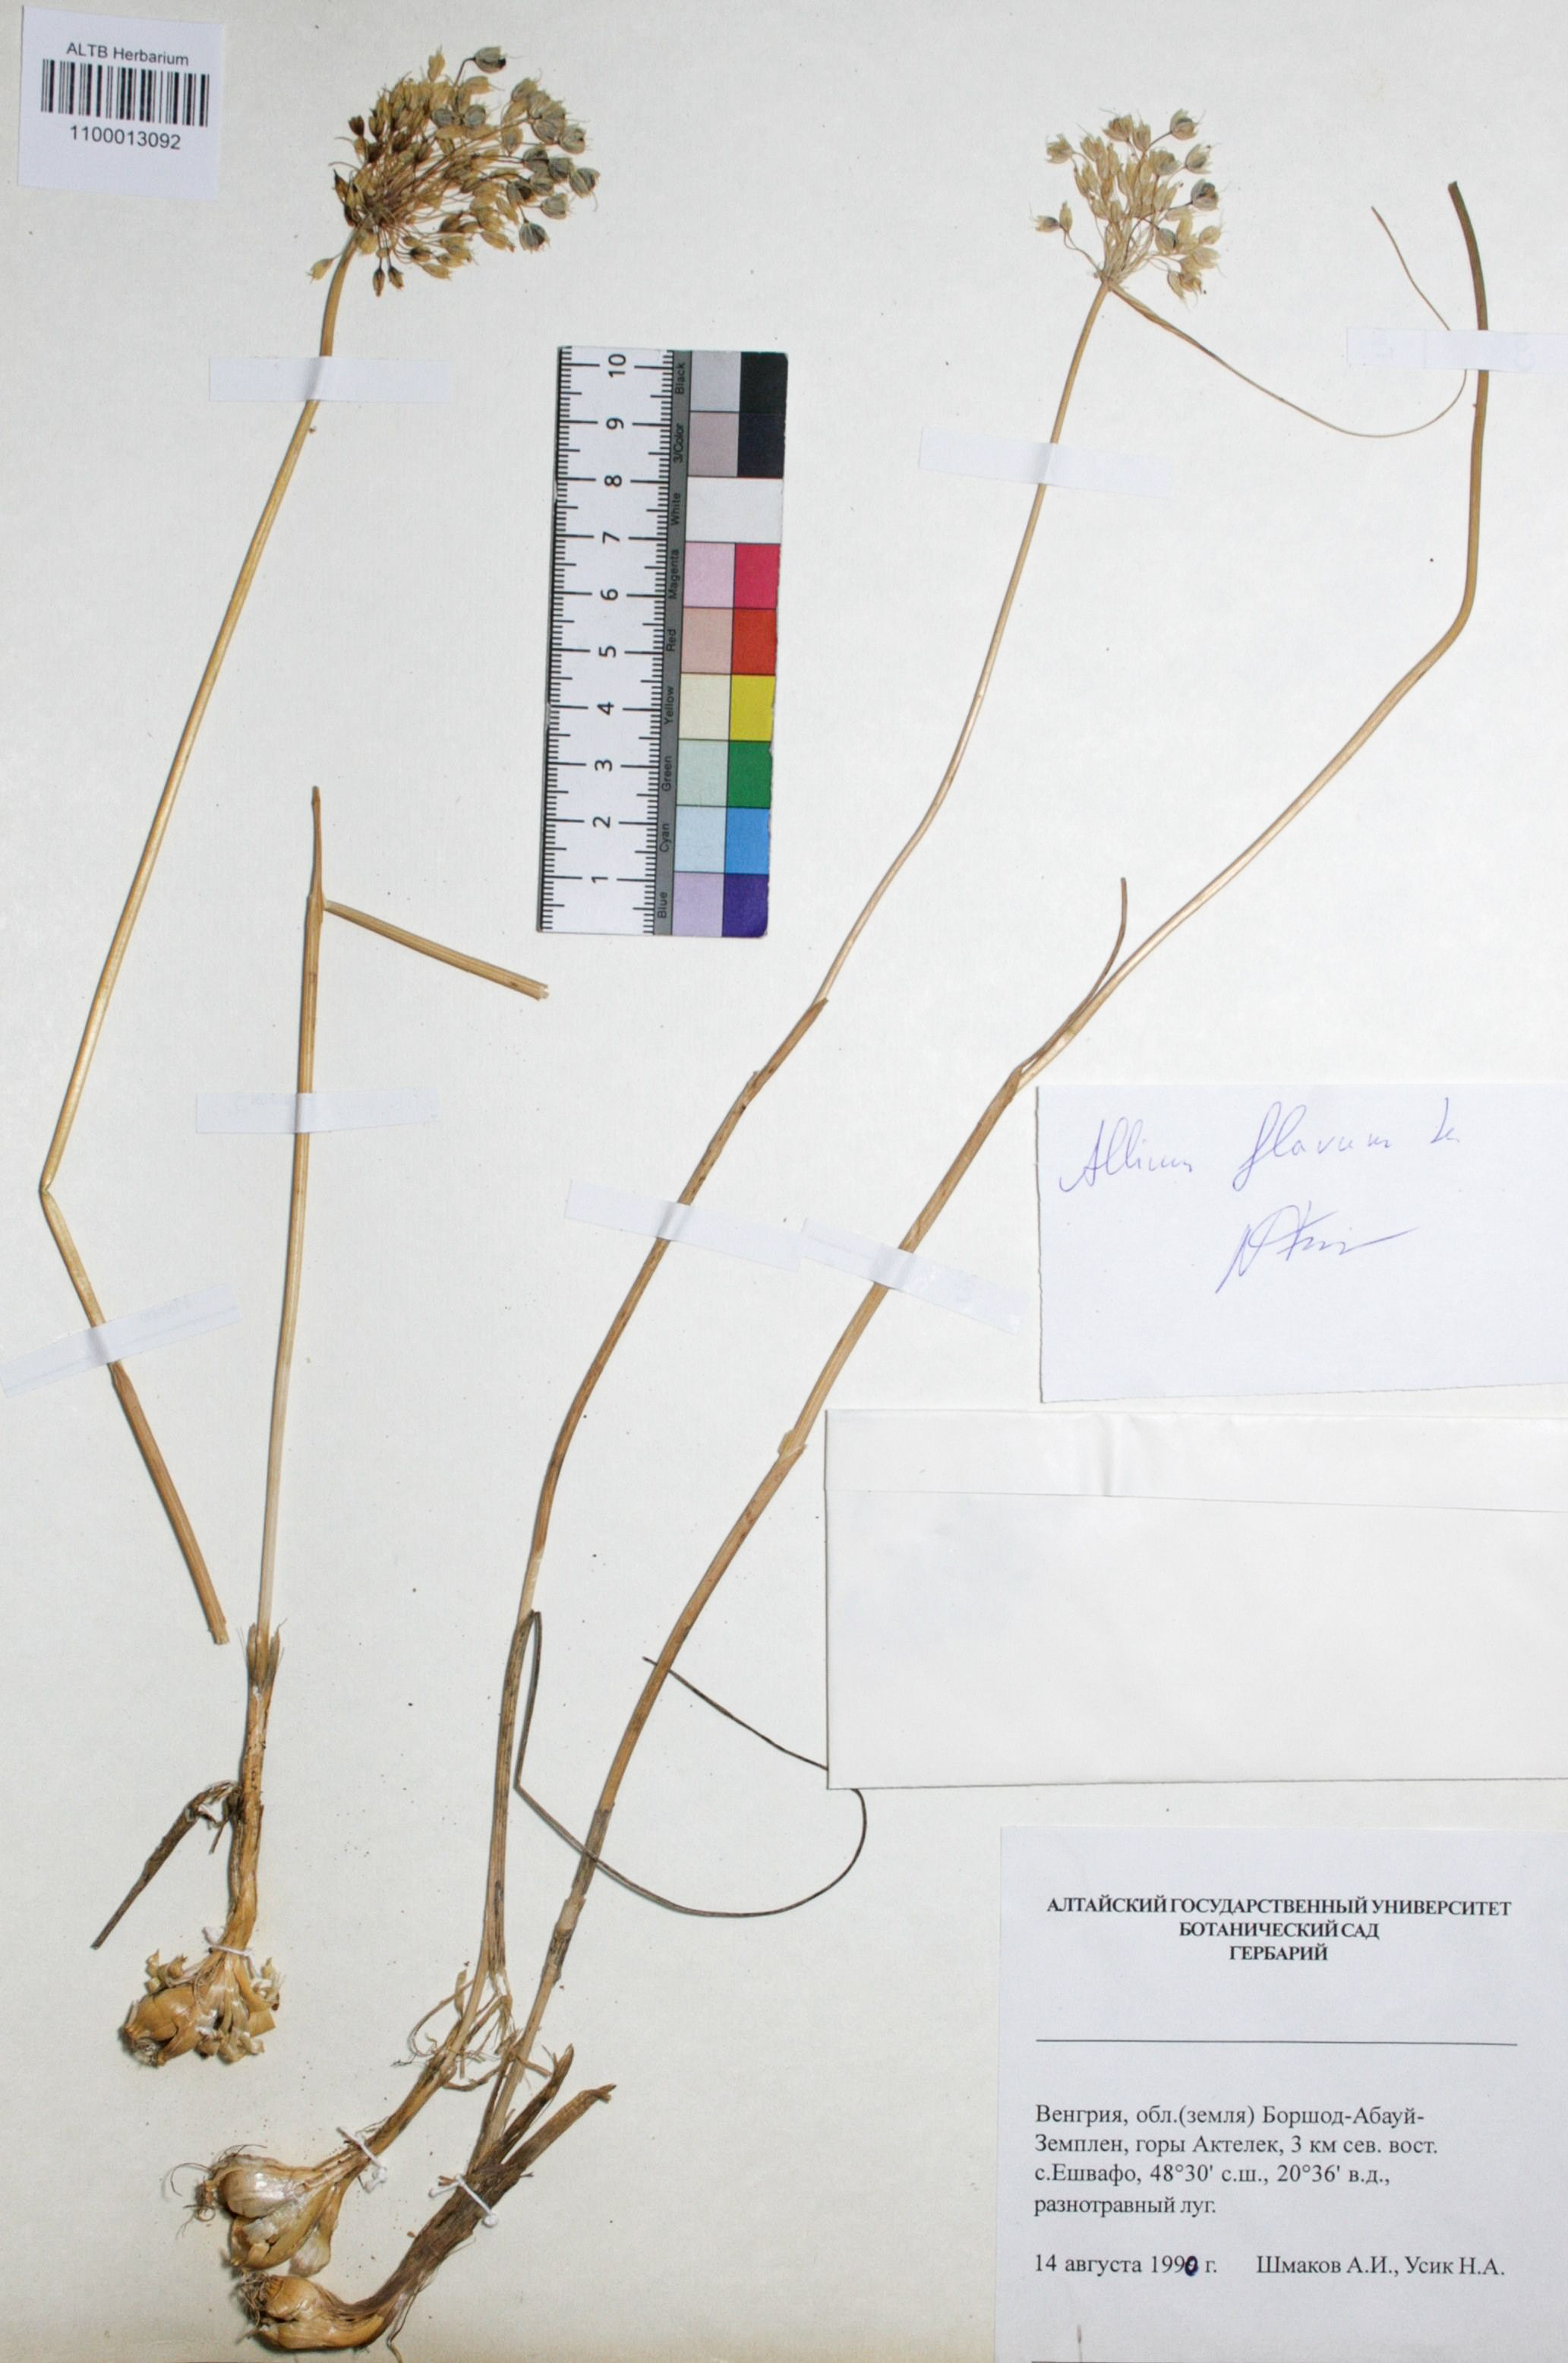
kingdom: Plantae
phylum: Tracheophyta
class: Liliopsida
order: Asparagales
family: Amaryllidaceae
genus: Allium
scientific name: Allium flavum
